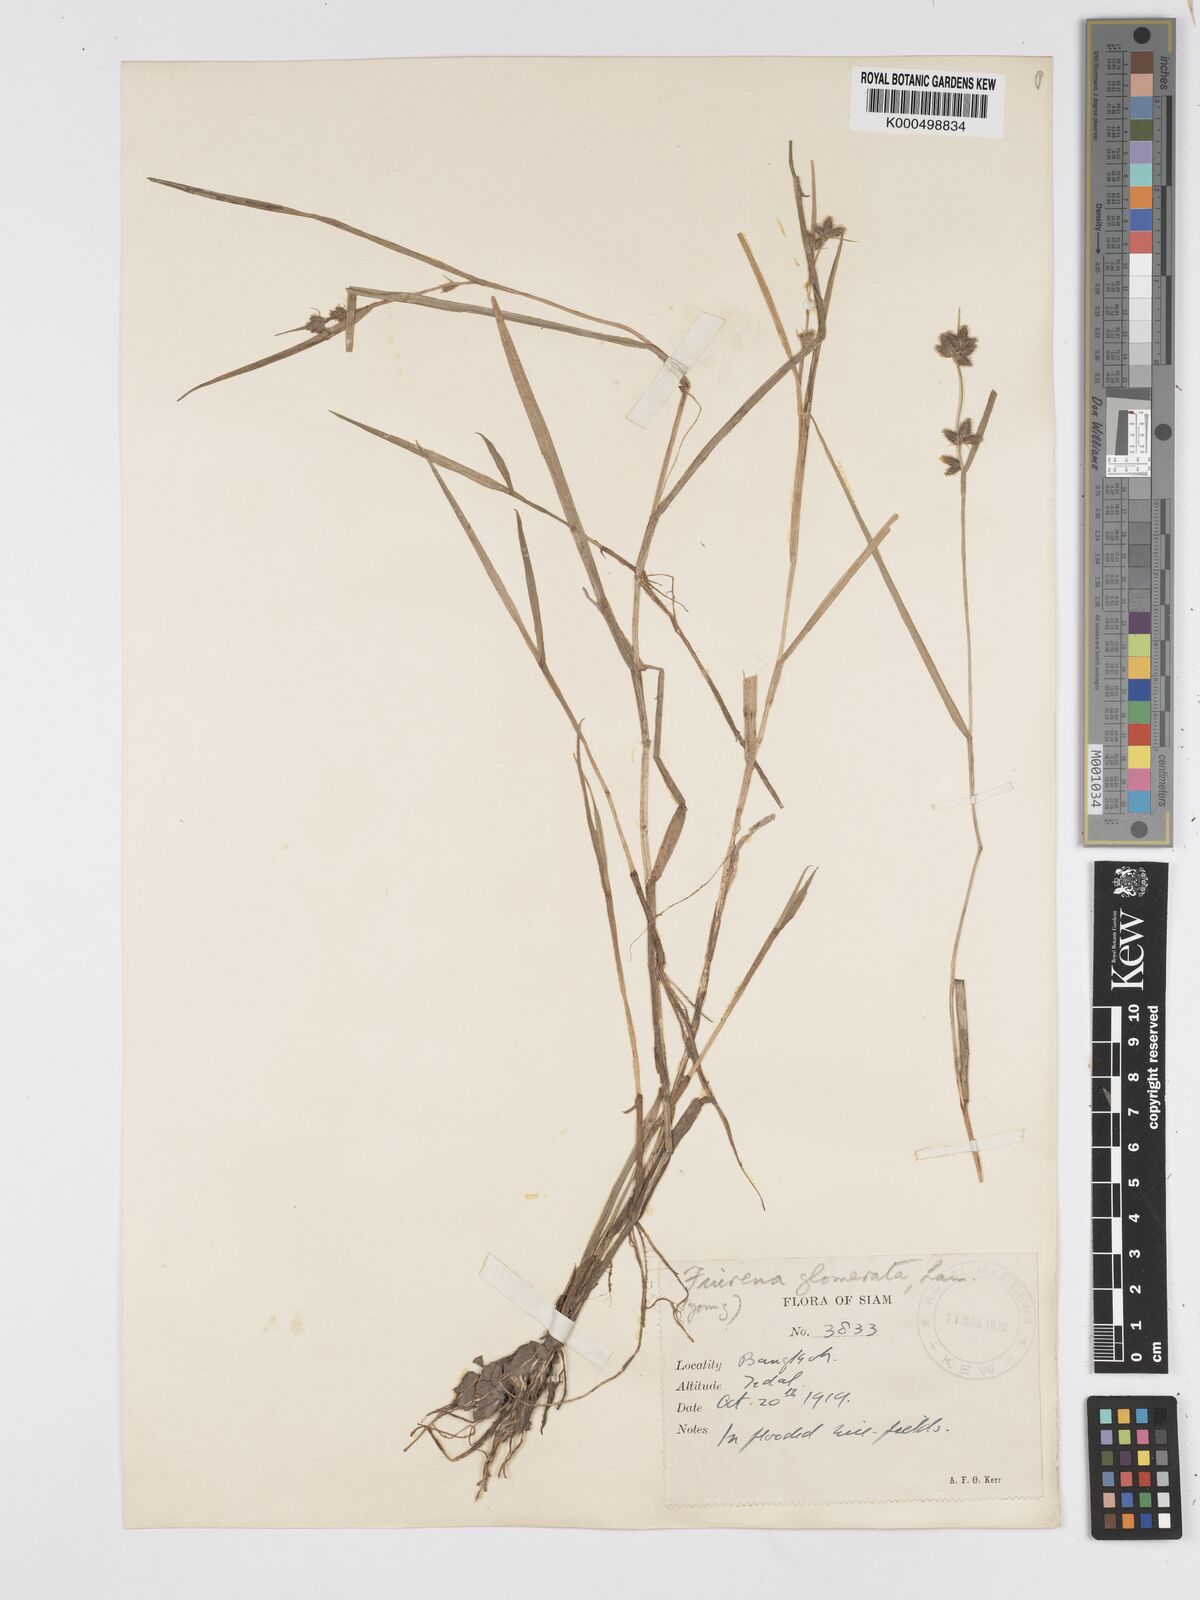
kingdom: Plantae
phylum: Tracheophyta
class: Liliopsida
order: Poales
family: Cyperaceae
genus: Fuirena
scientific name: Fuirena ciliaris
